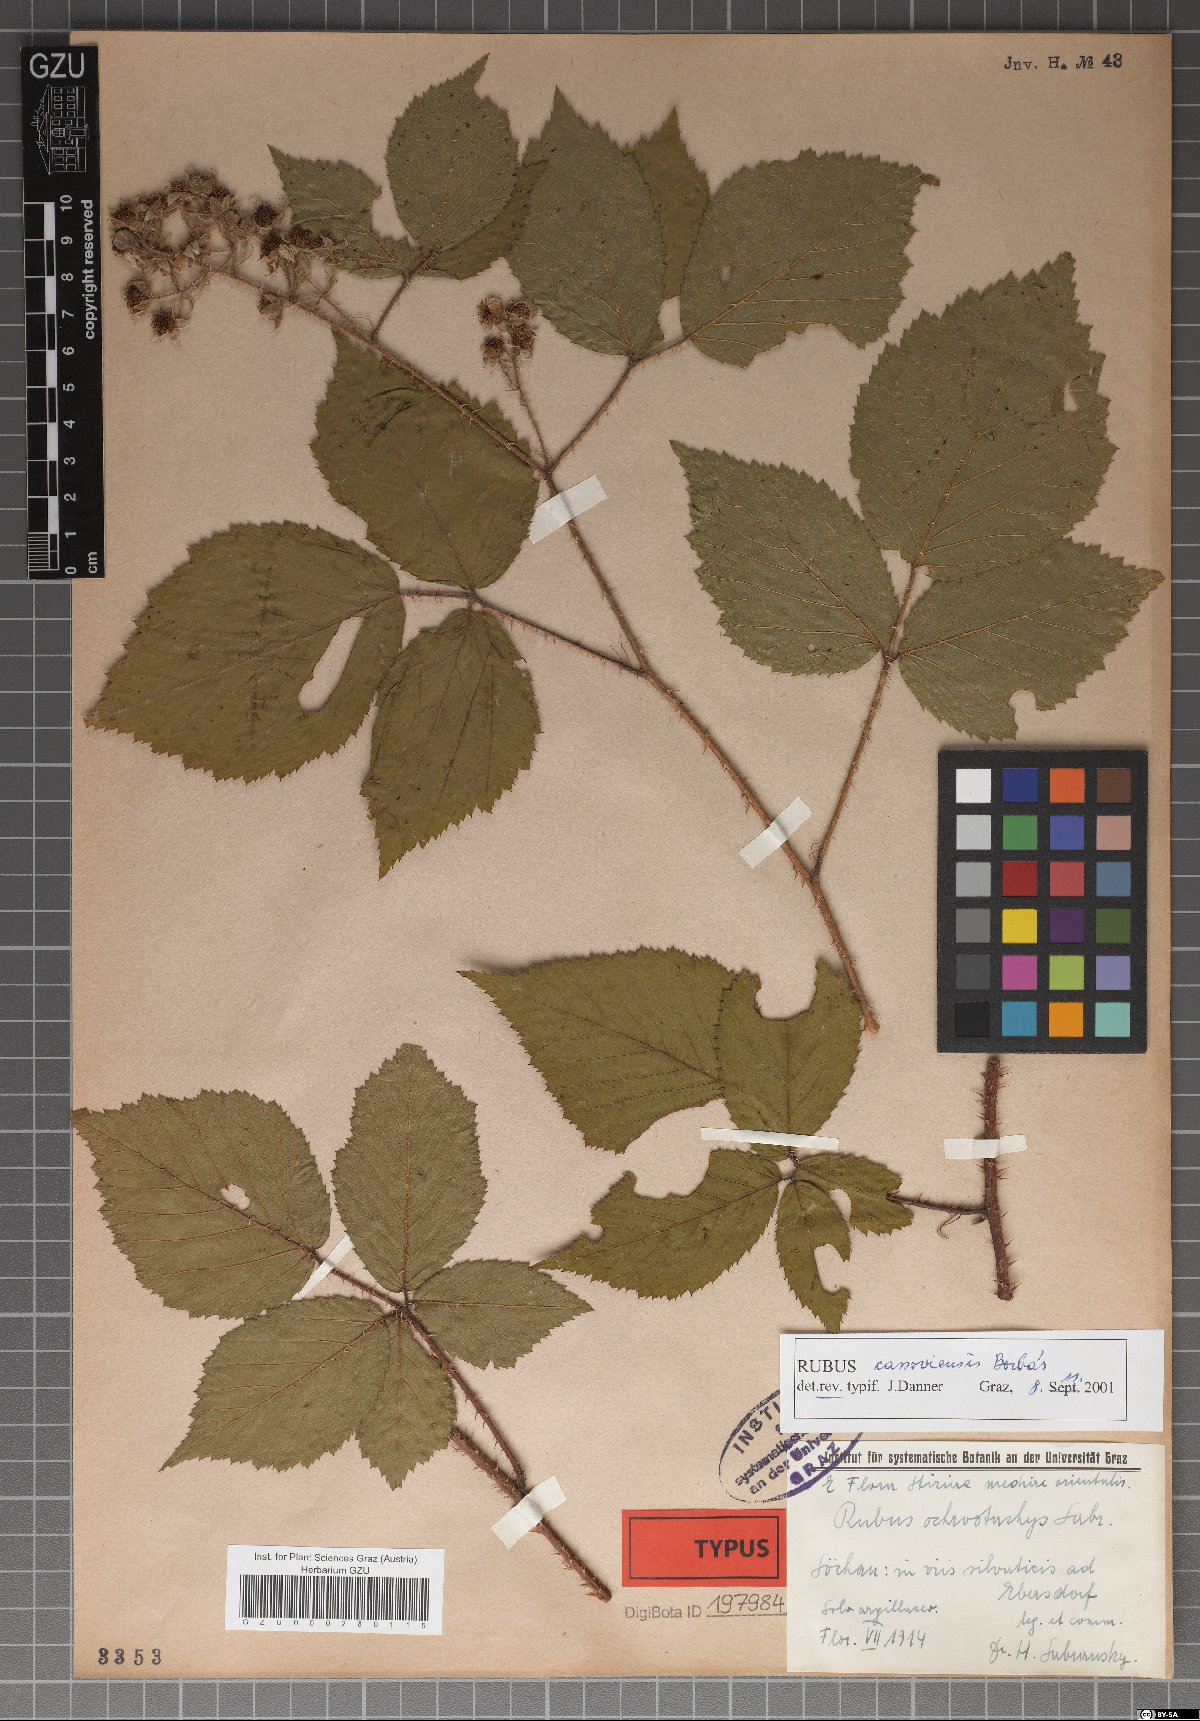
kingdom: Plantae
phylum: Tracheophyta
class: Magnoliopsida
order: Rosales
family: Rosaceae
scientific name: Rosaceae
